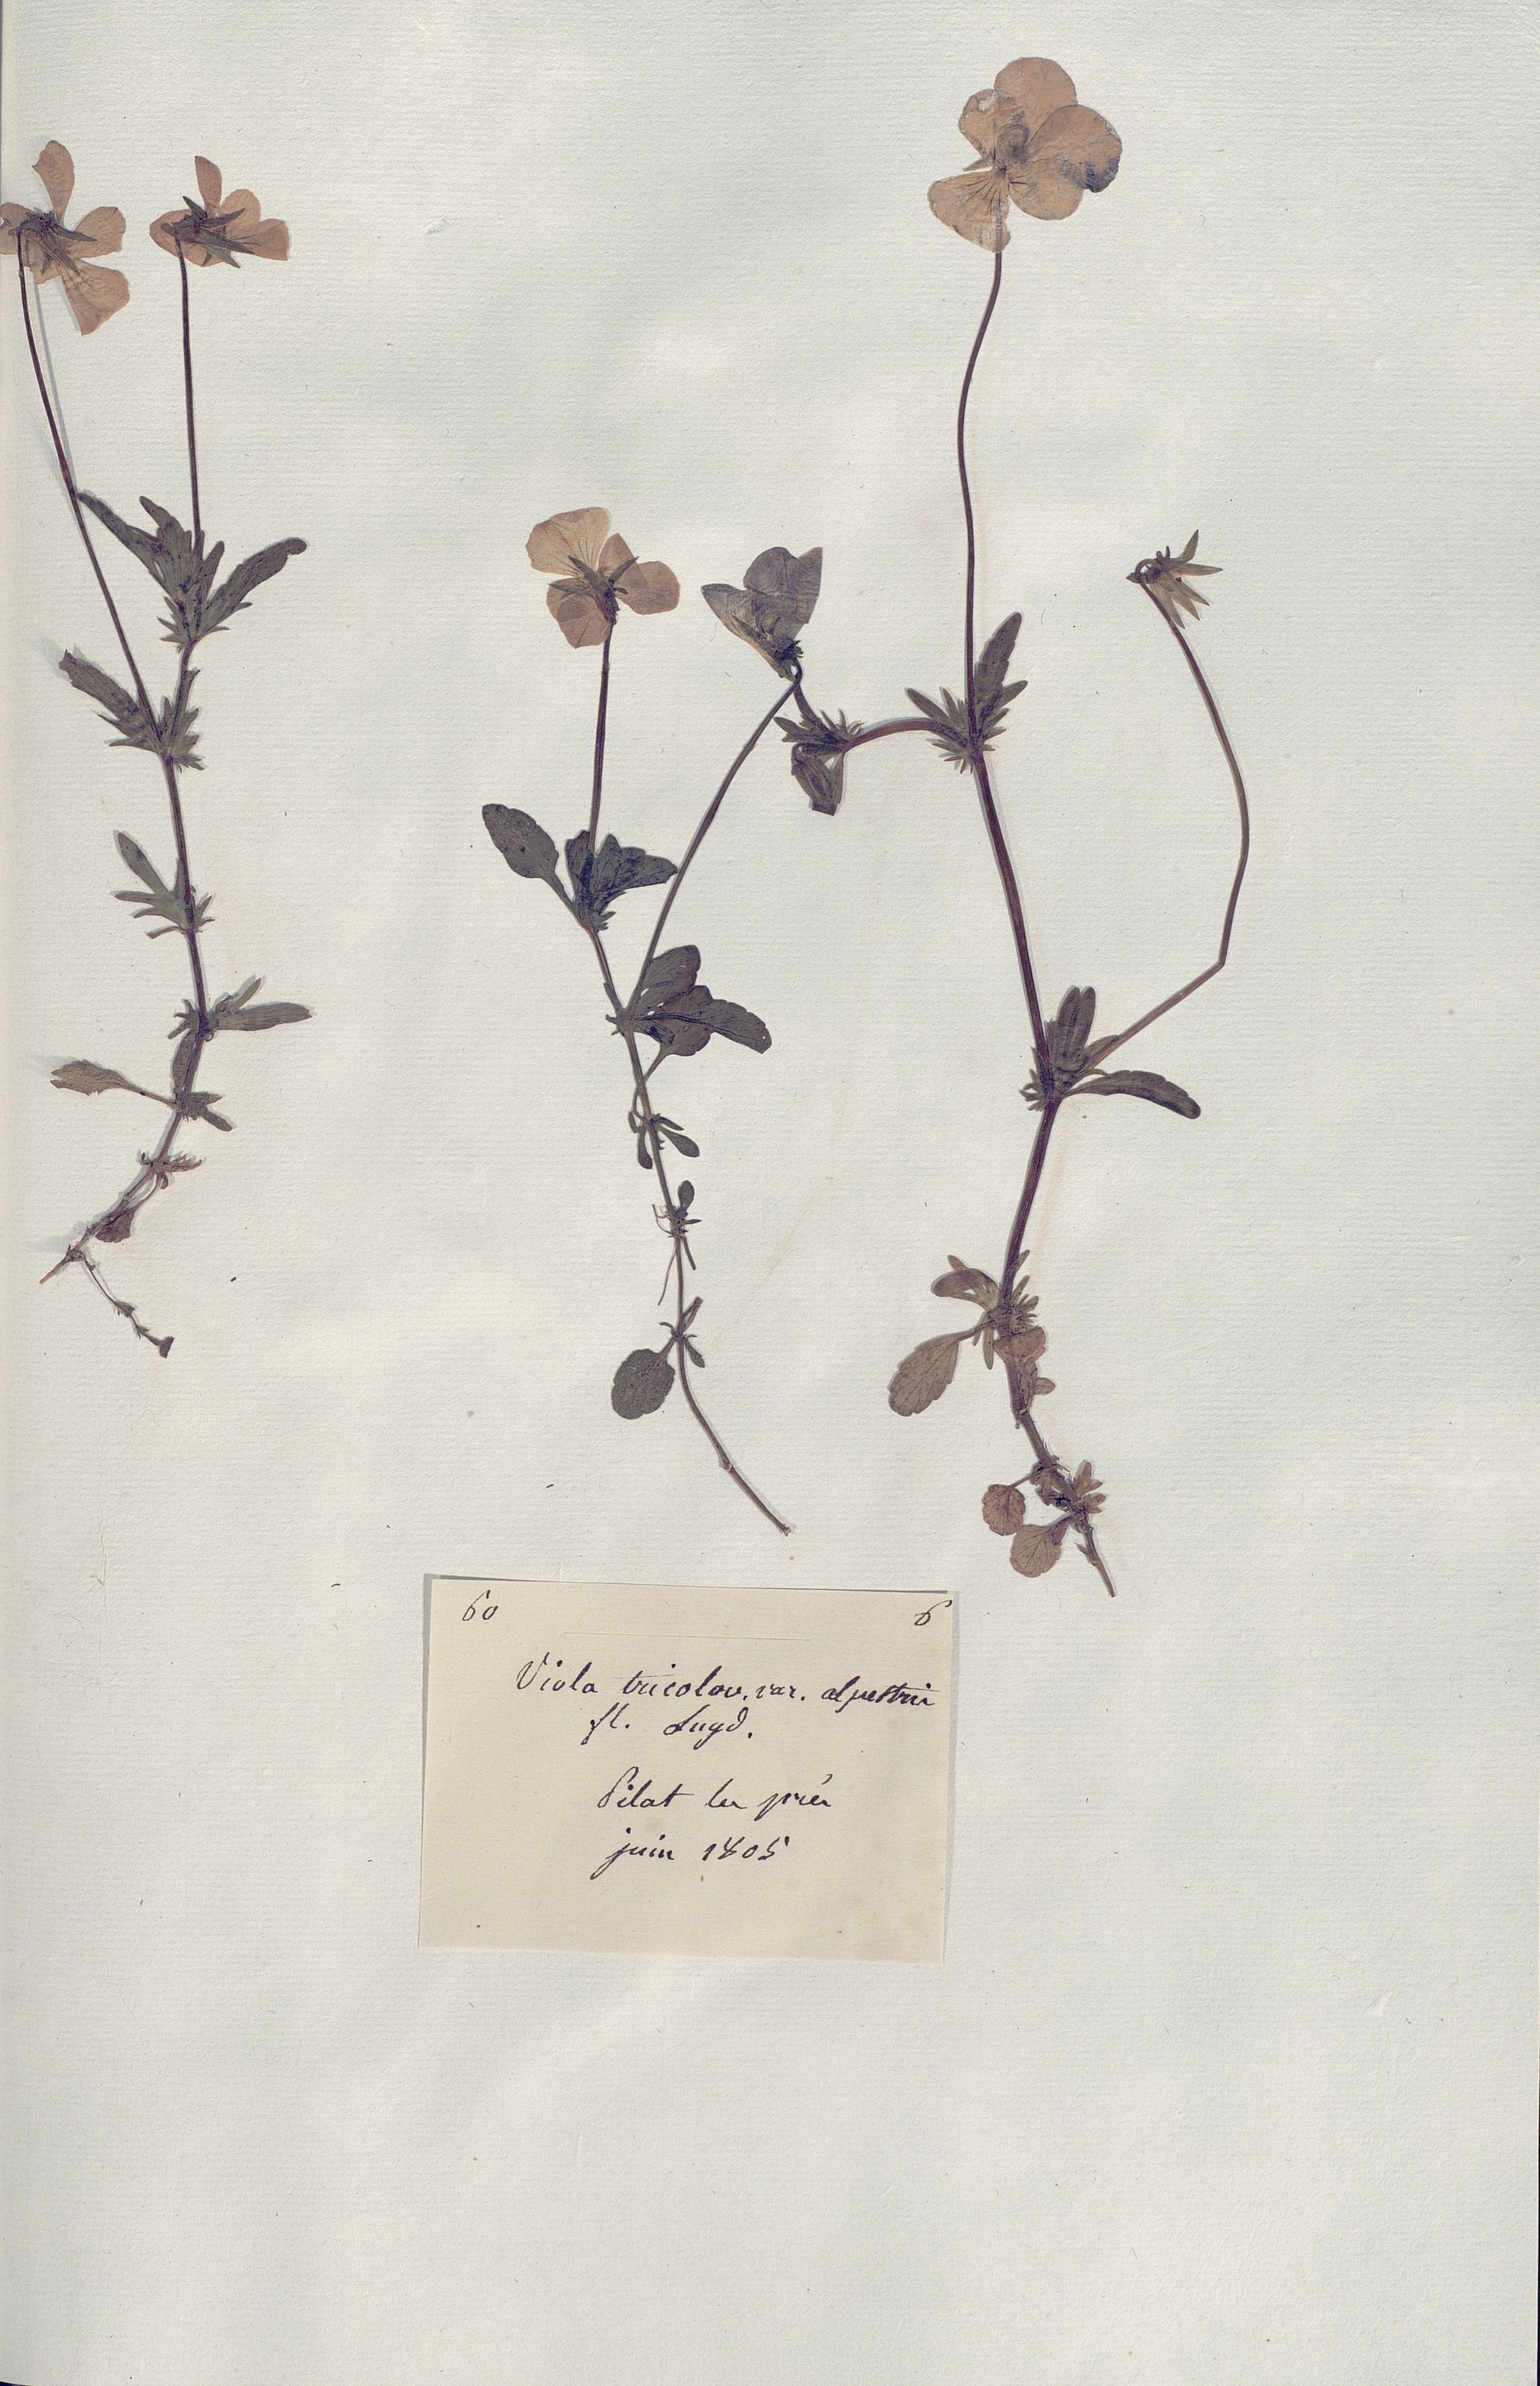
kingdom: Plantae
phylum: Tracheophyta
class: Magnoliopsida
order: Malpighiales
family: Violaceae
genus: Viola
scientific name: Viola tricolor
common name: Pansy
